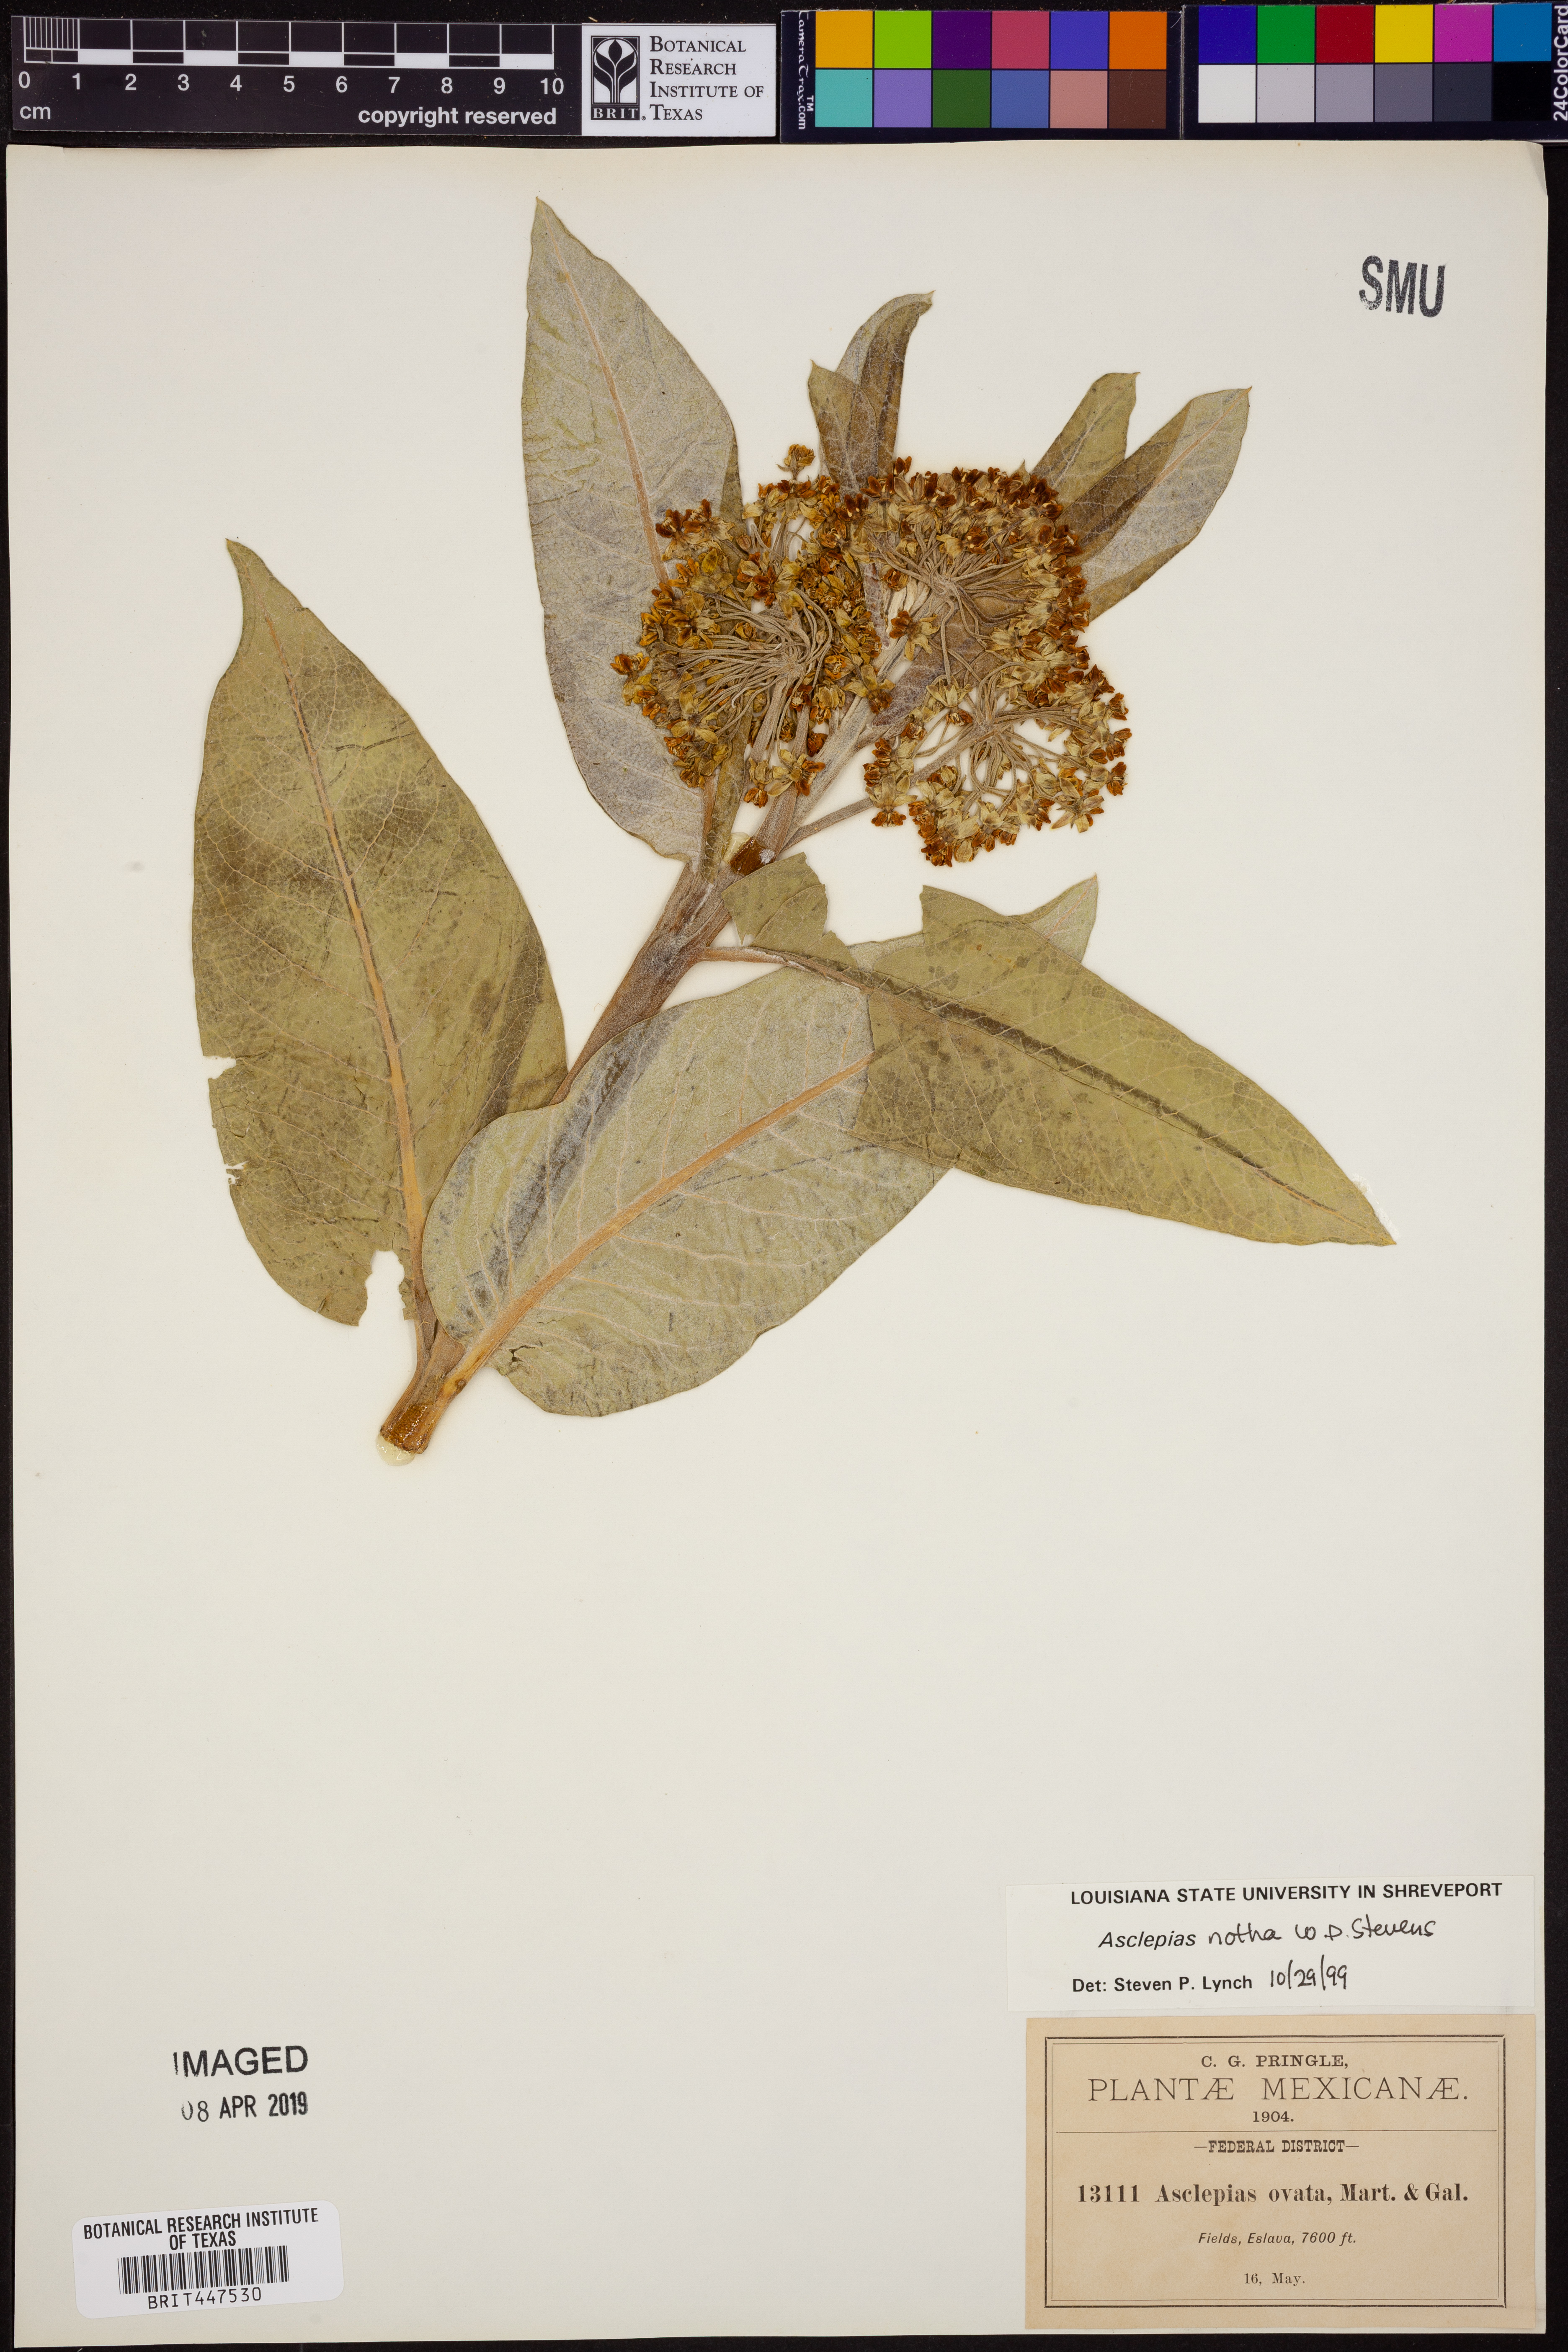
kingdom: Plantae
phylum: Tracheophyta
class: Magnoliopsida
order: Gentianales
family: Apocynaceae
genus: Asclepias
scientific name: Asclepias scheryi
